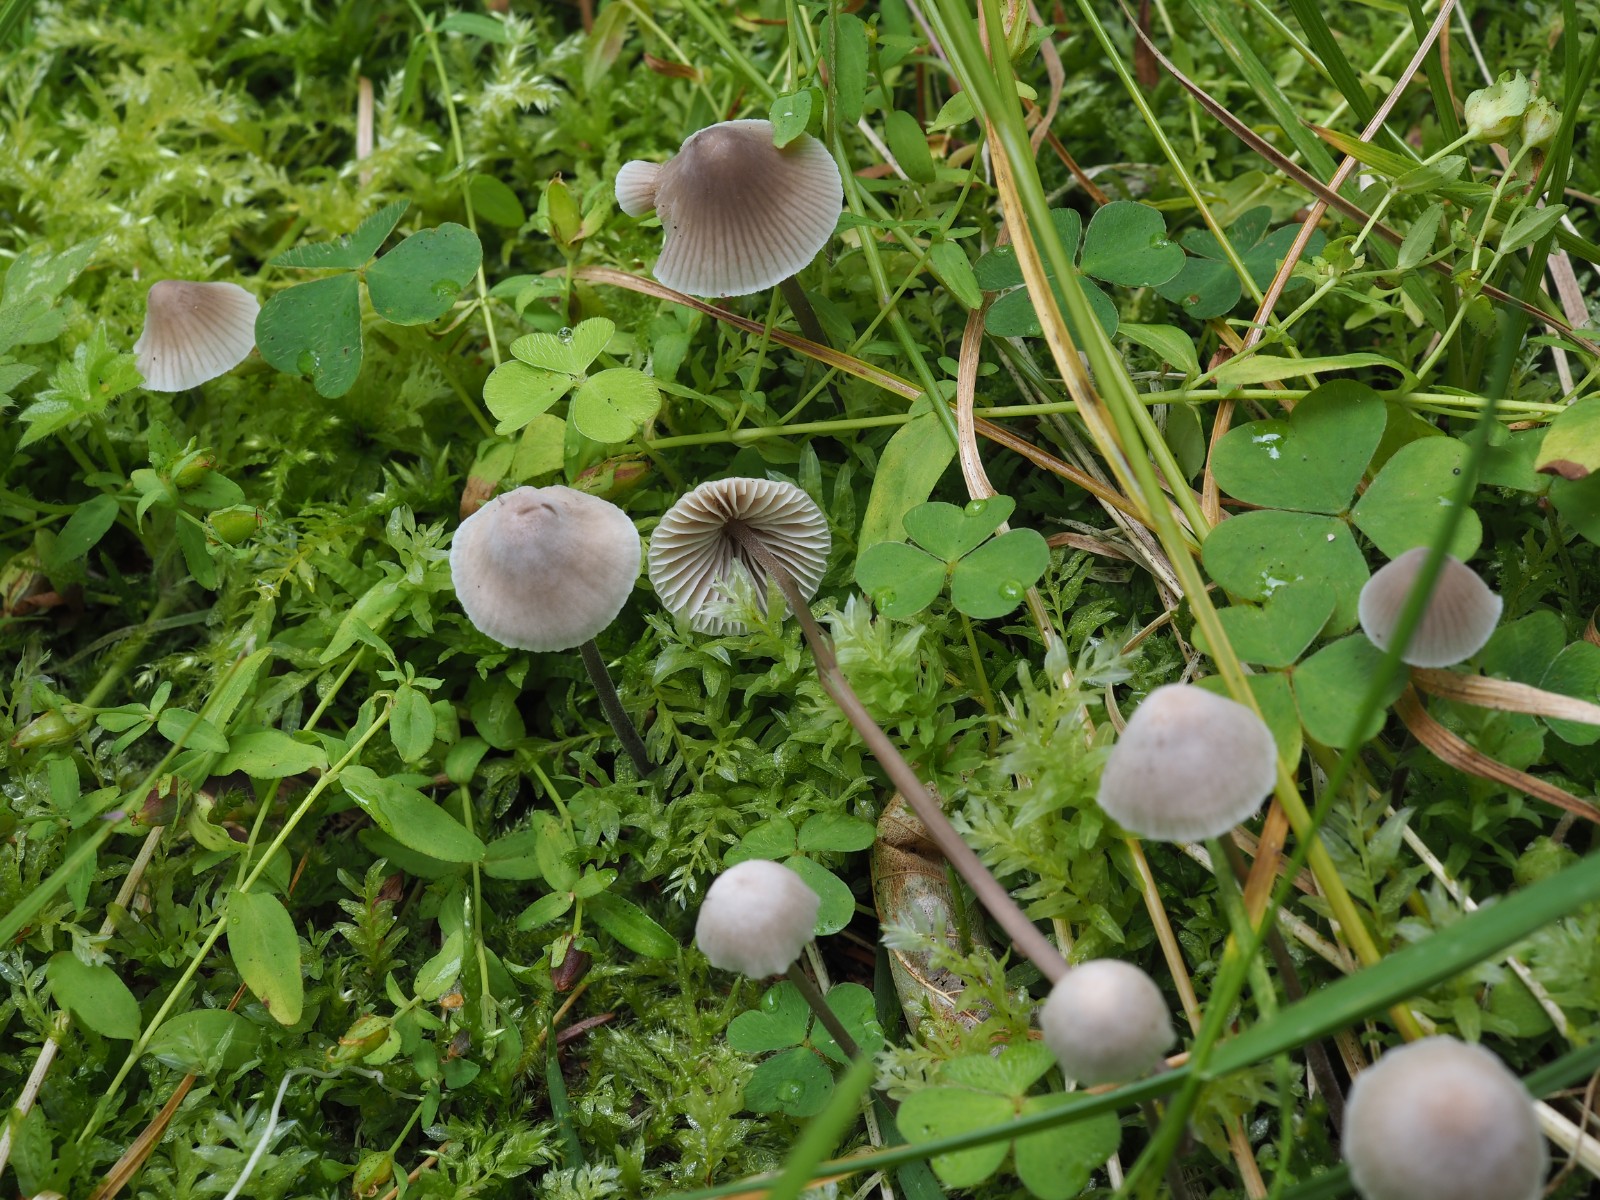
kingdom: Fungi
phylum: Basidiomycota
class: Agaricomycetes
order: Agaricales
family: Mycenaceae
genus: Mycena
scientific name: Mycena
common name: huesvamp
